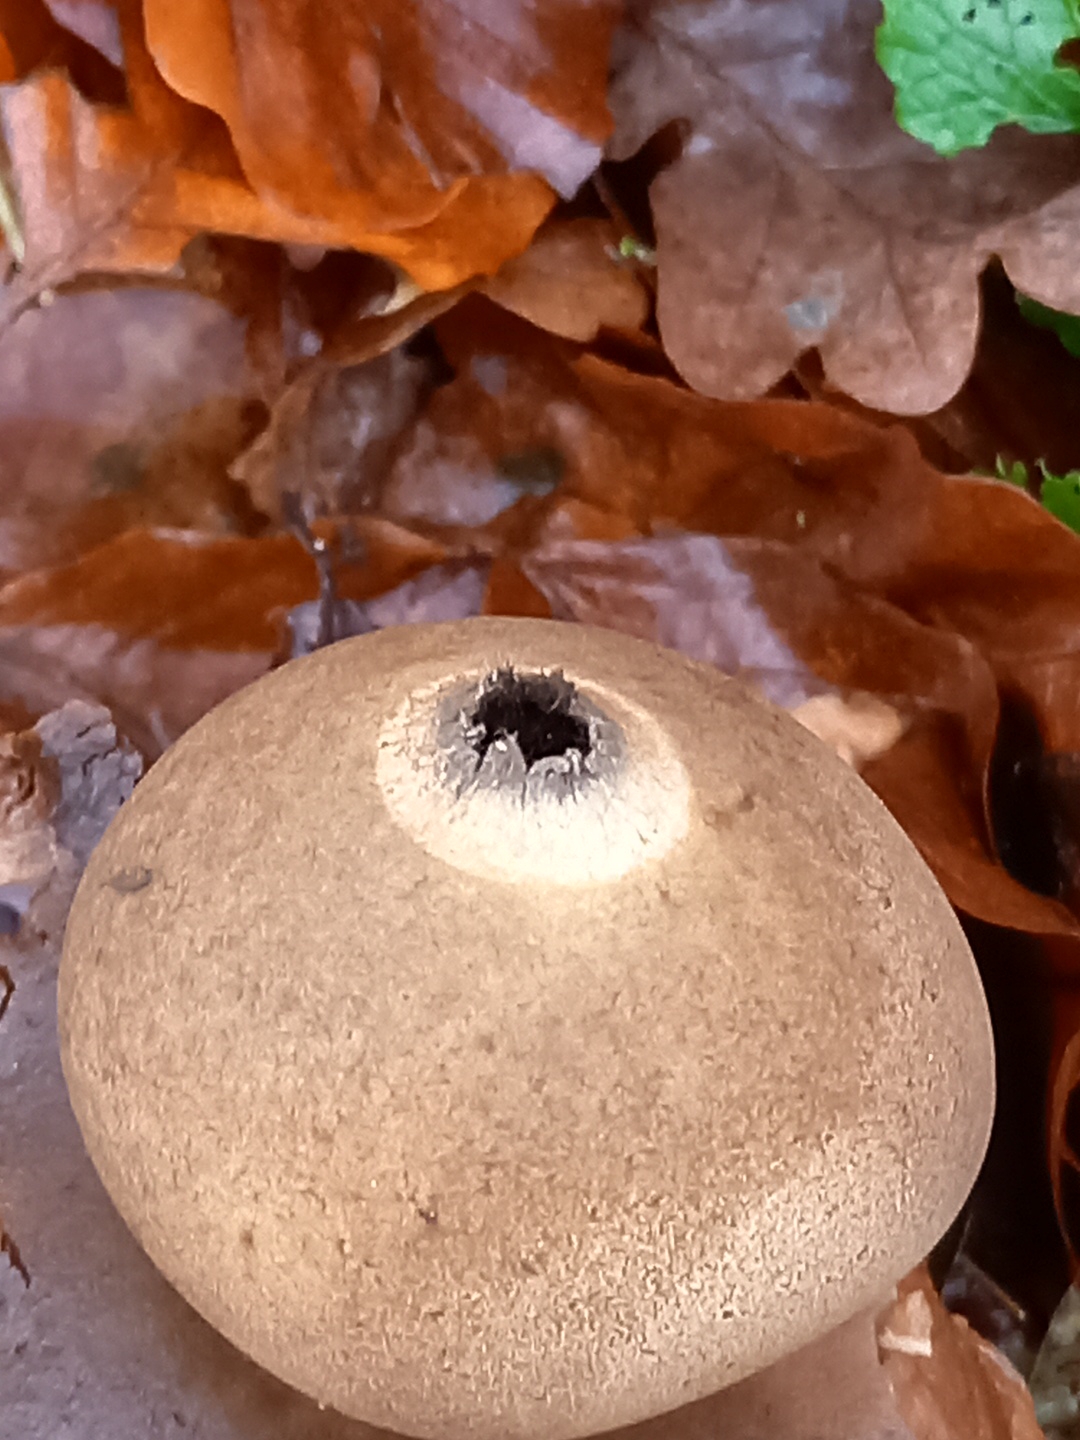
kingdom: Fungi
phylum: Basidiomycota
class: Agaricomycetes
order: Geastrales
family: Geastraceae
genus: Geastrum
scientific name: Geastrum michelianum
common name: kødet stjernebold
